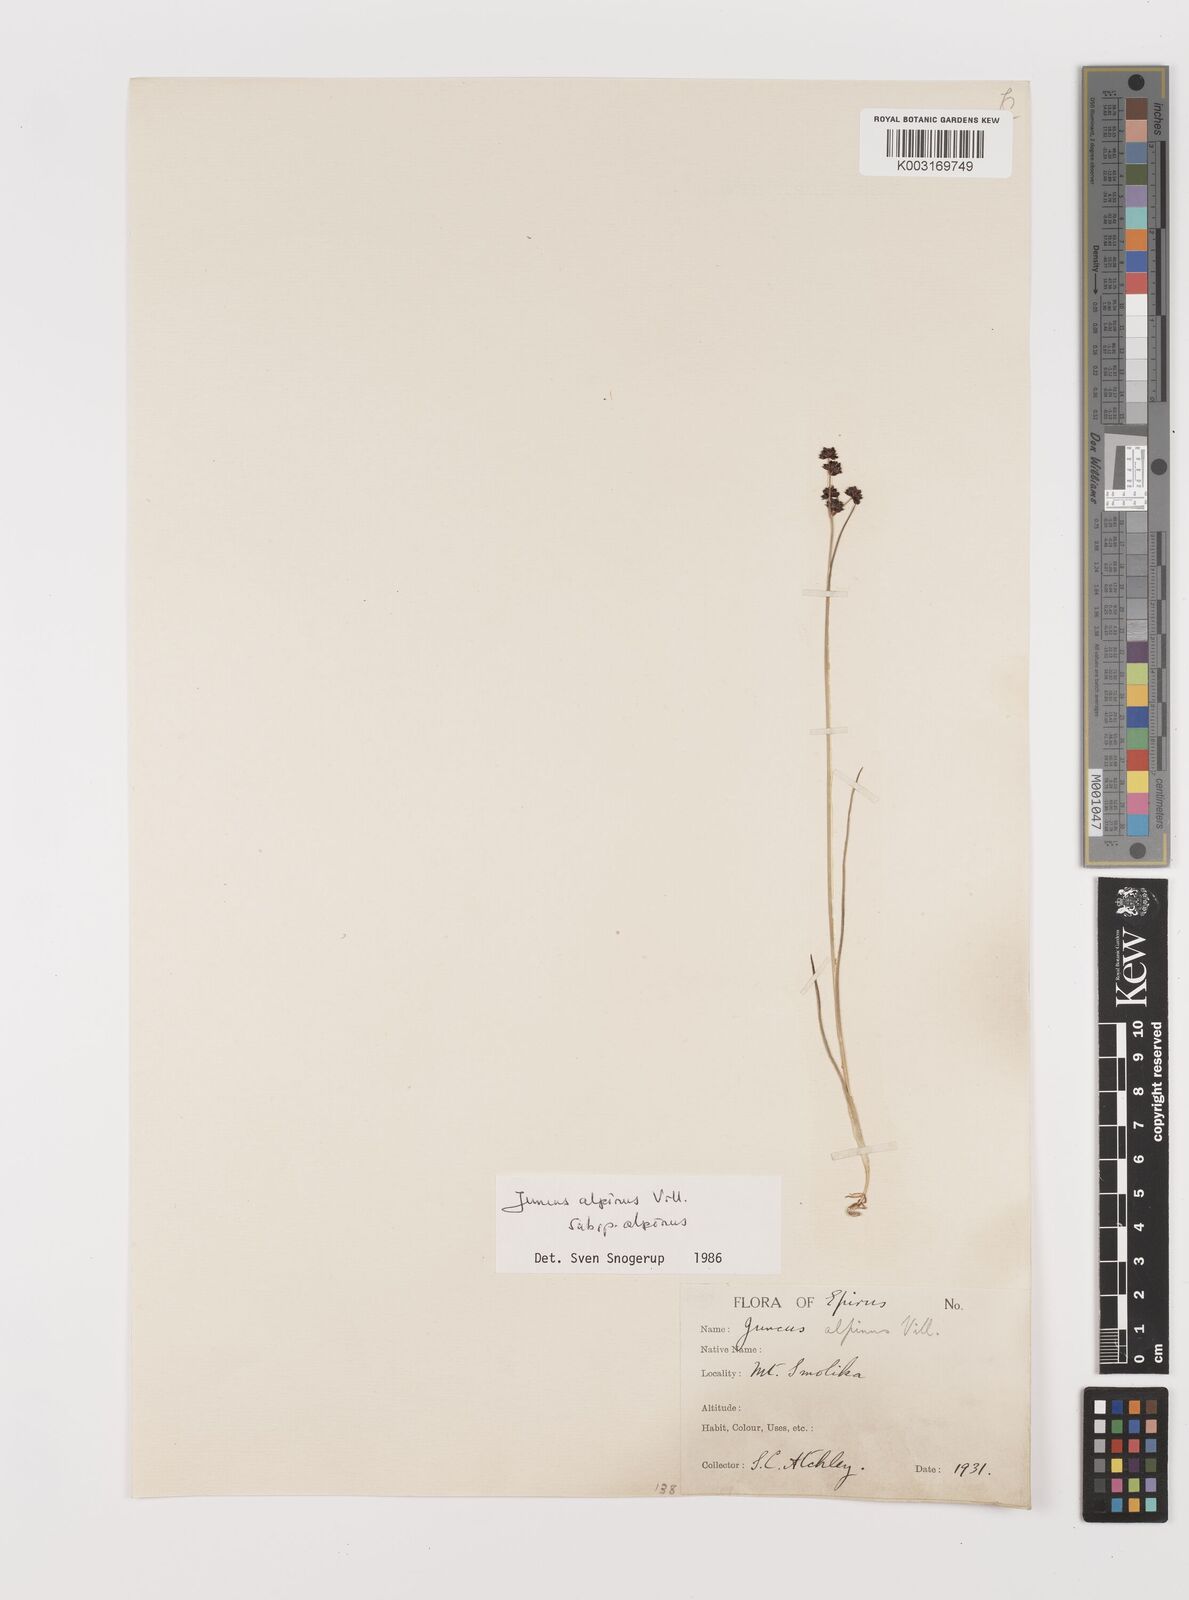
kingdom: Plantae
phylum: Tracheophyta
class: Liliopsida
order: Poales
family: Juncaceae
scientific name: Juncaceae
